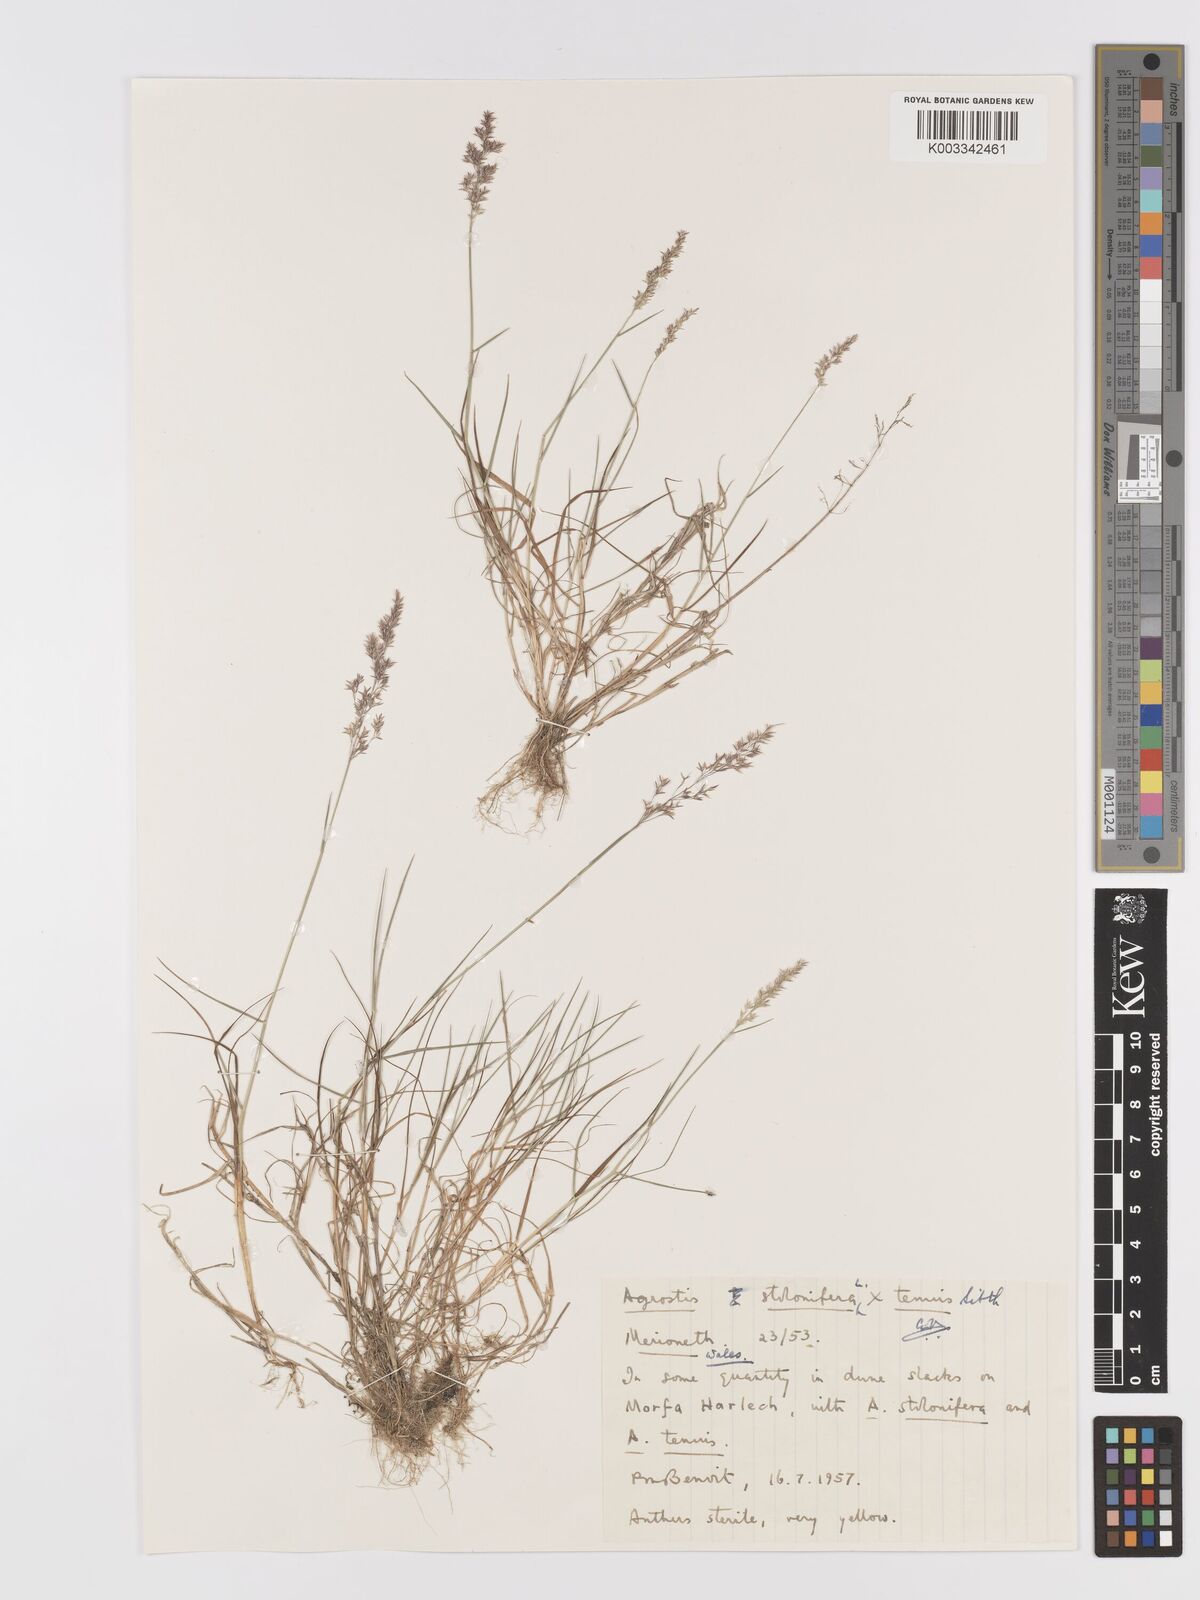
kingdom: Plantae
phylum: Tracheophyta
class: Liliopsida
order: Poales
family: Poaceae
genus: Agrostis
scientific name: Agrostis capillaris
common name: Colonial bentgrass
